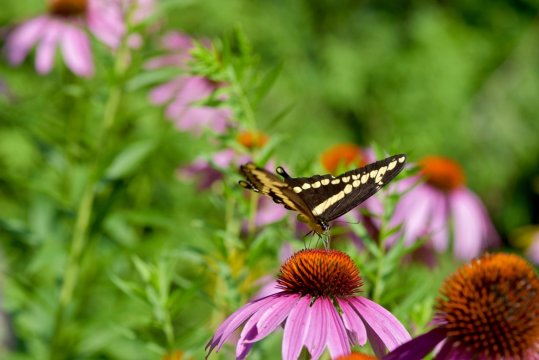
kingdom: Animalia
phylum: Arthropoda
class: Insecta
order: Lepidoptera
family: Papilionidae
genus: Papilio
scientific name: Papilio cresphontes
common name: Eastern Giant Swallowtail
